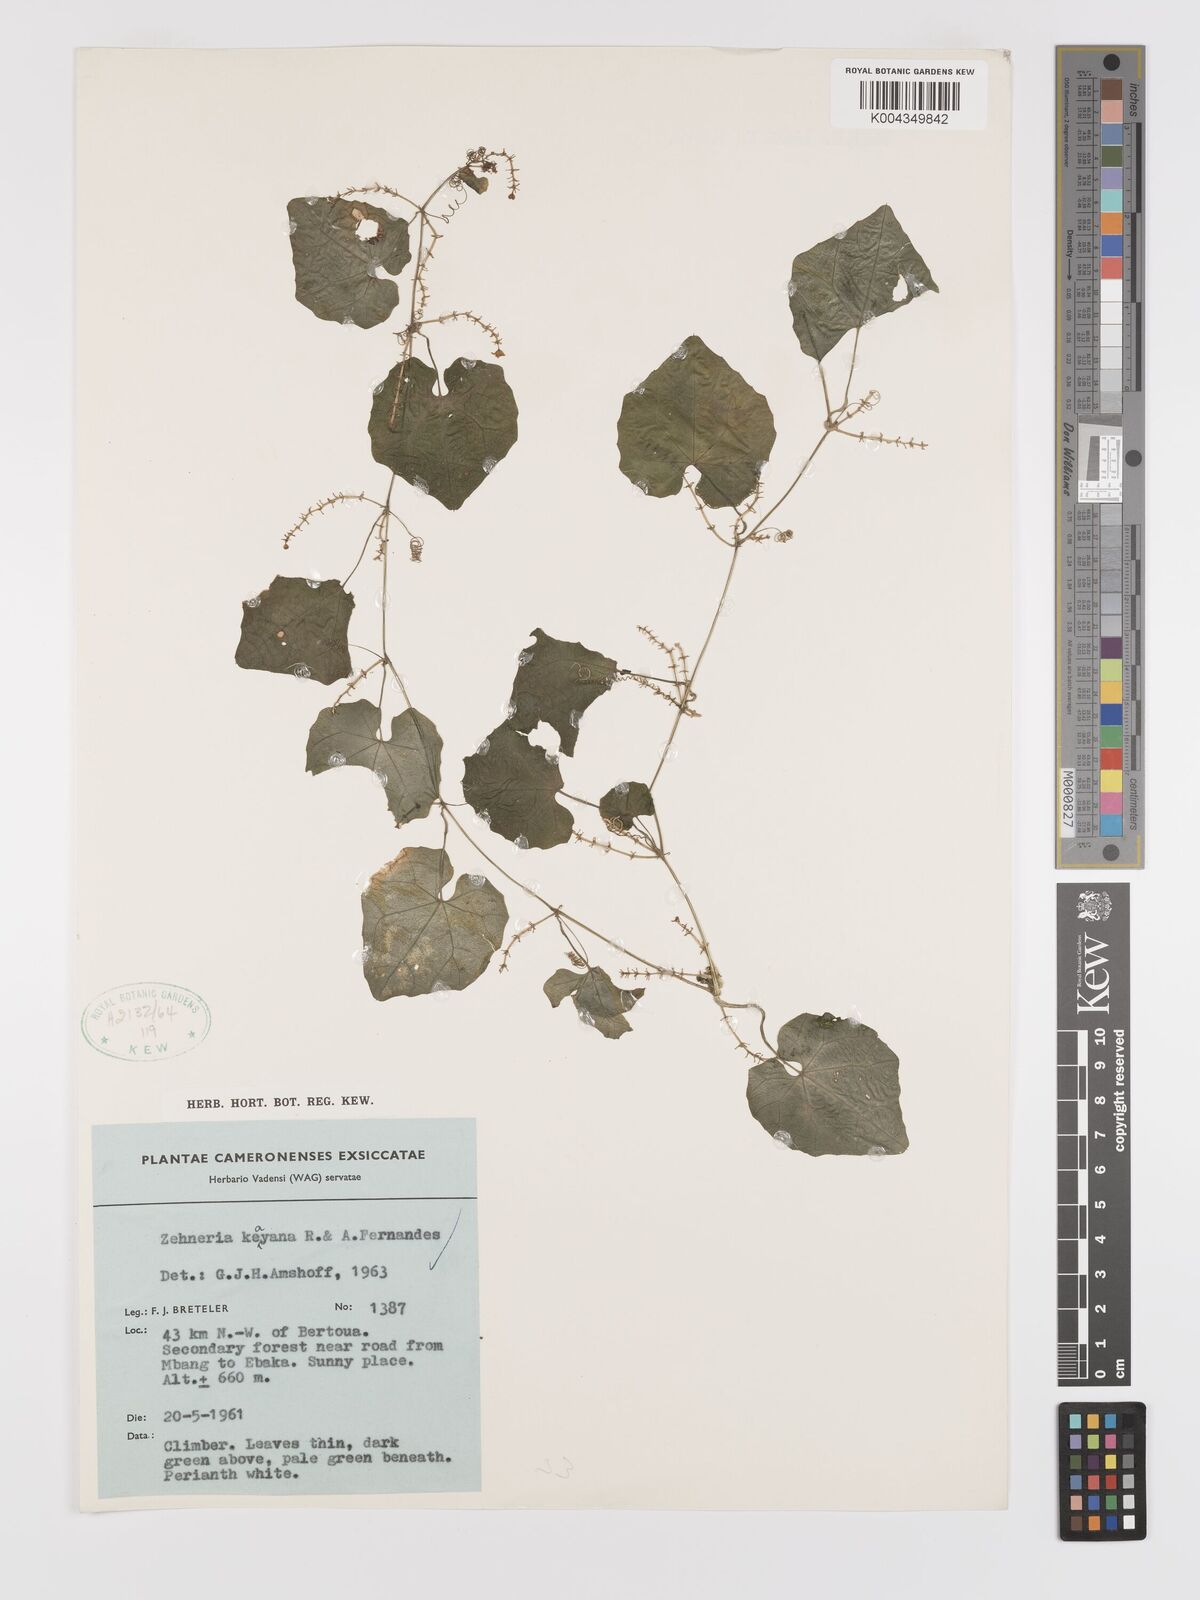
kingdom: Plantae
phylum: Tracheophyta
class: Magnoliopsida
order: Cucurbitales
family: Cucurbitaceae
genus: Zehneria
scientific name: Zehneria keayana
